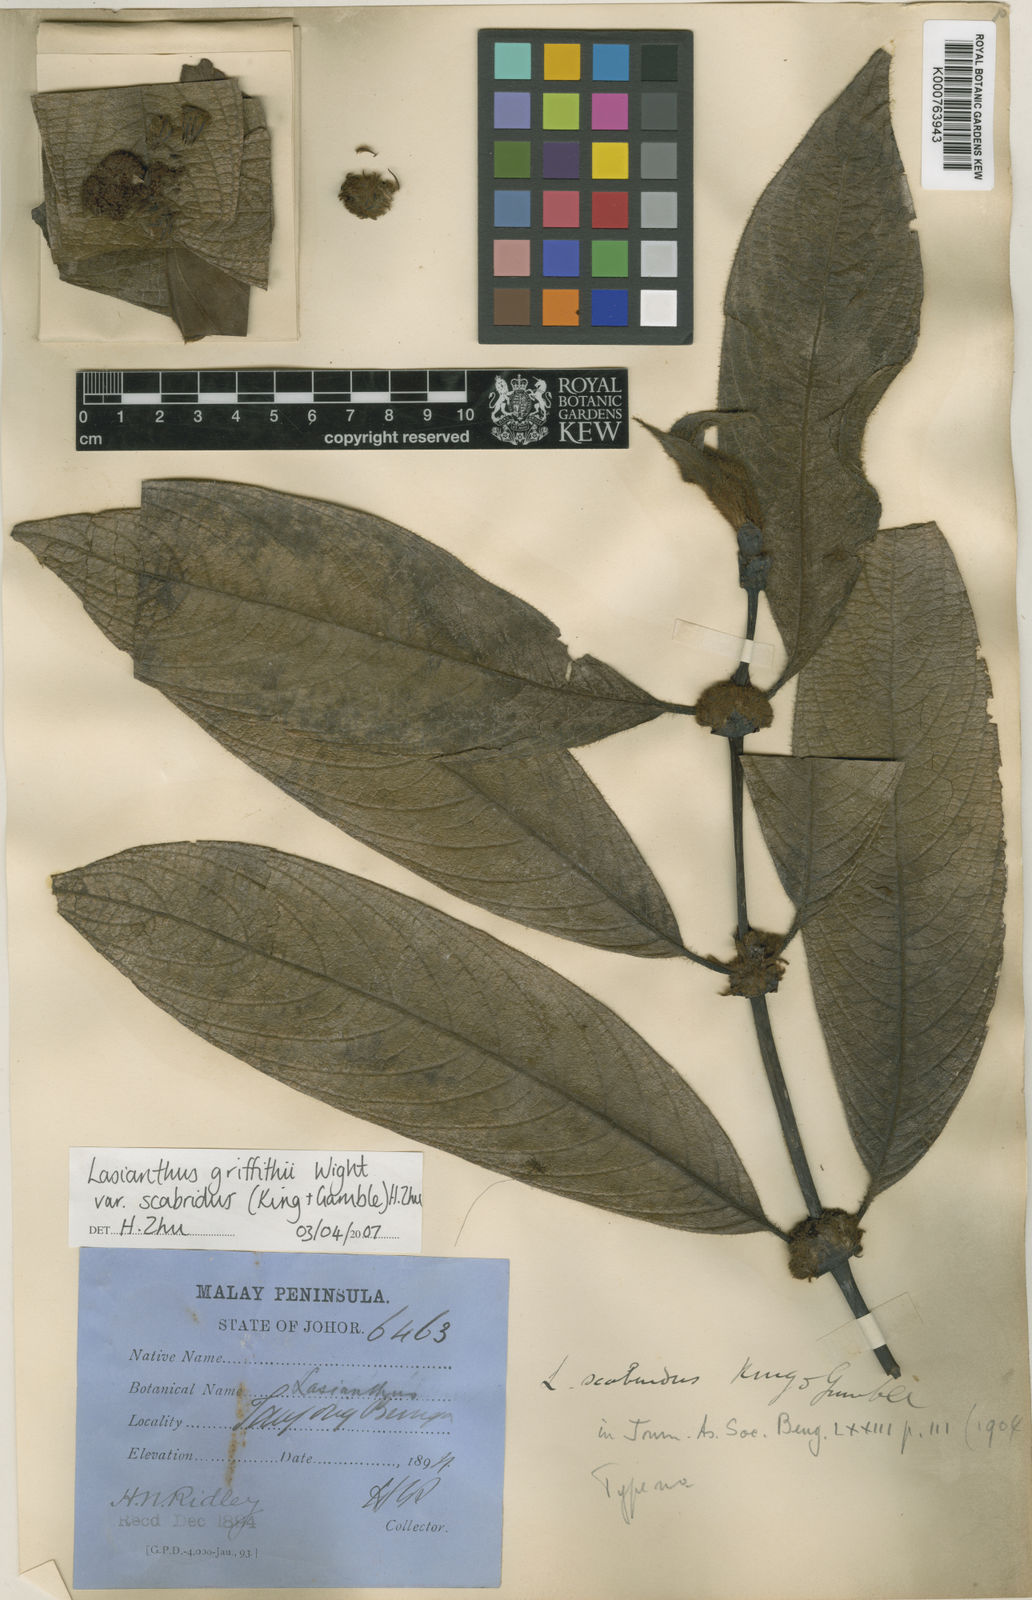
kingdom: Plantae
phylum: Tracheophyta
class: Magnoliopsida
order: Gentianales
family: Rubiaceae
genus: Lasianthus
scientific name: Lasianthus scabridus
